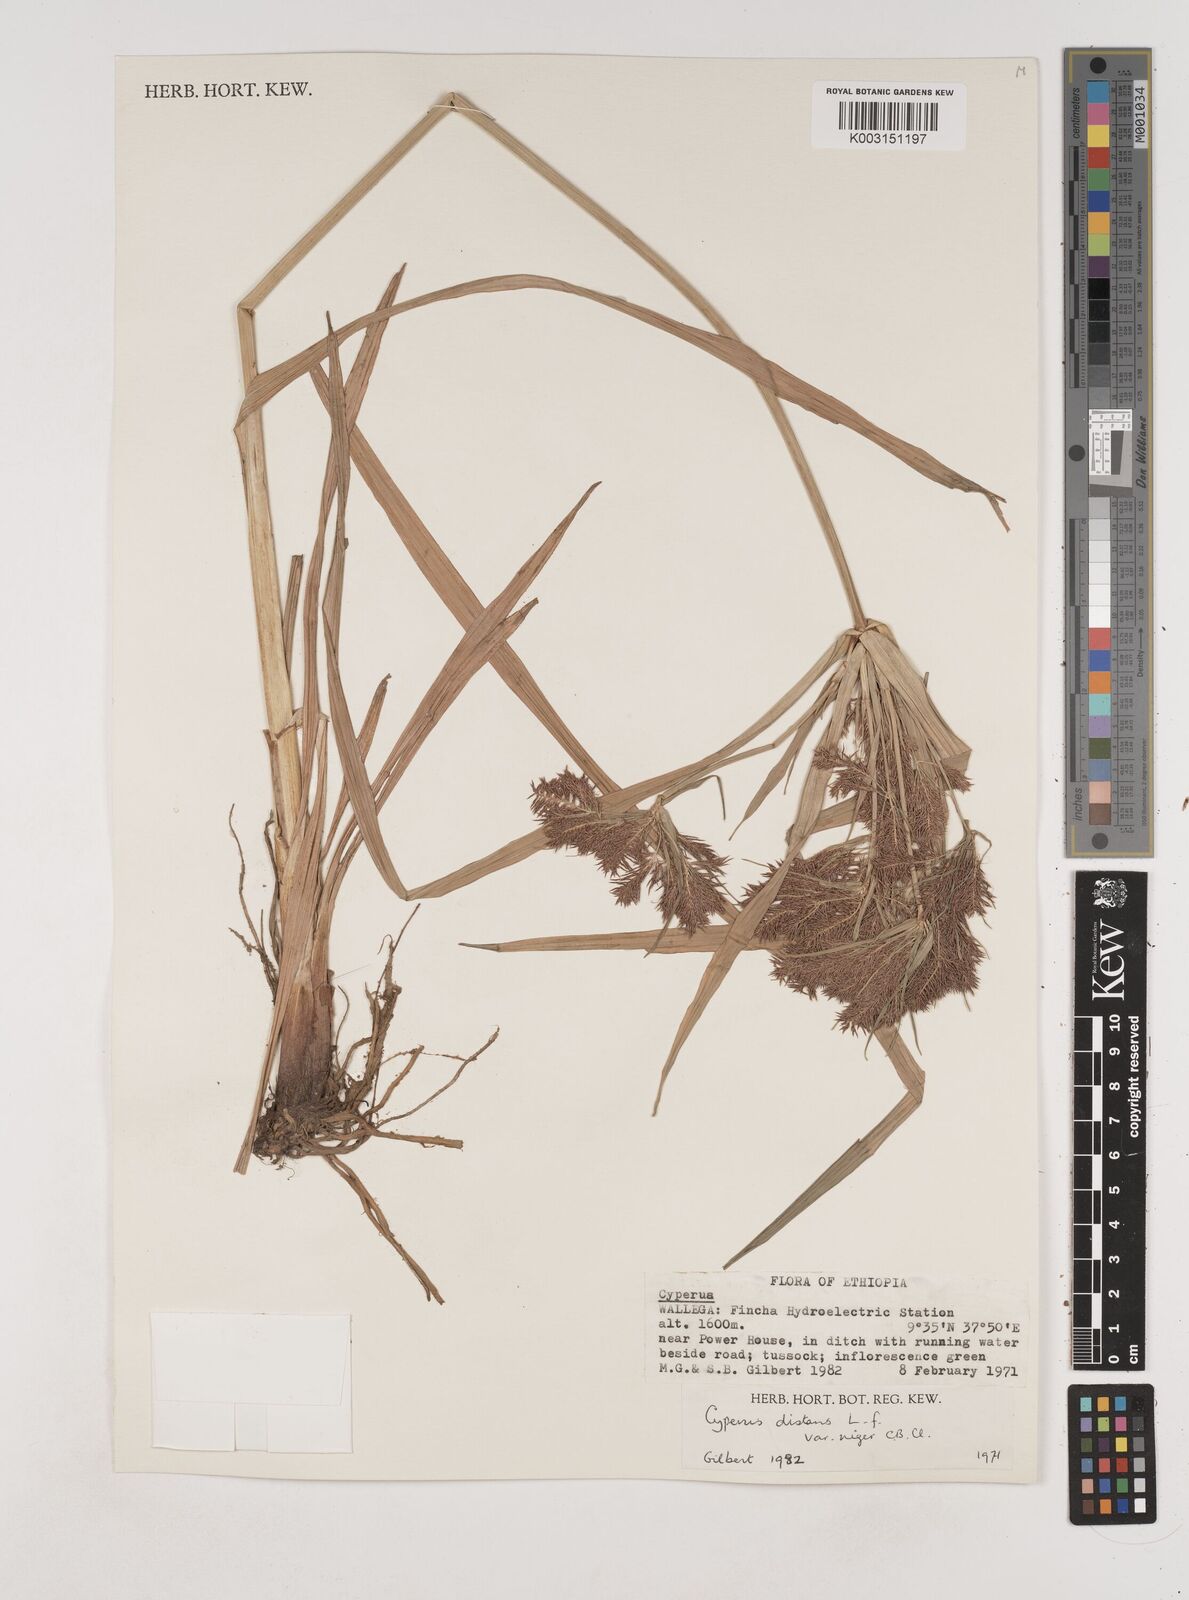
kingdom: Plantae
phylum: Tracheophyta
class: Liliopsida
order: Poales
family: Cyperaceae
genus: Cyperus
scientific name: Cyperus distans
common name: Slender cyperus
